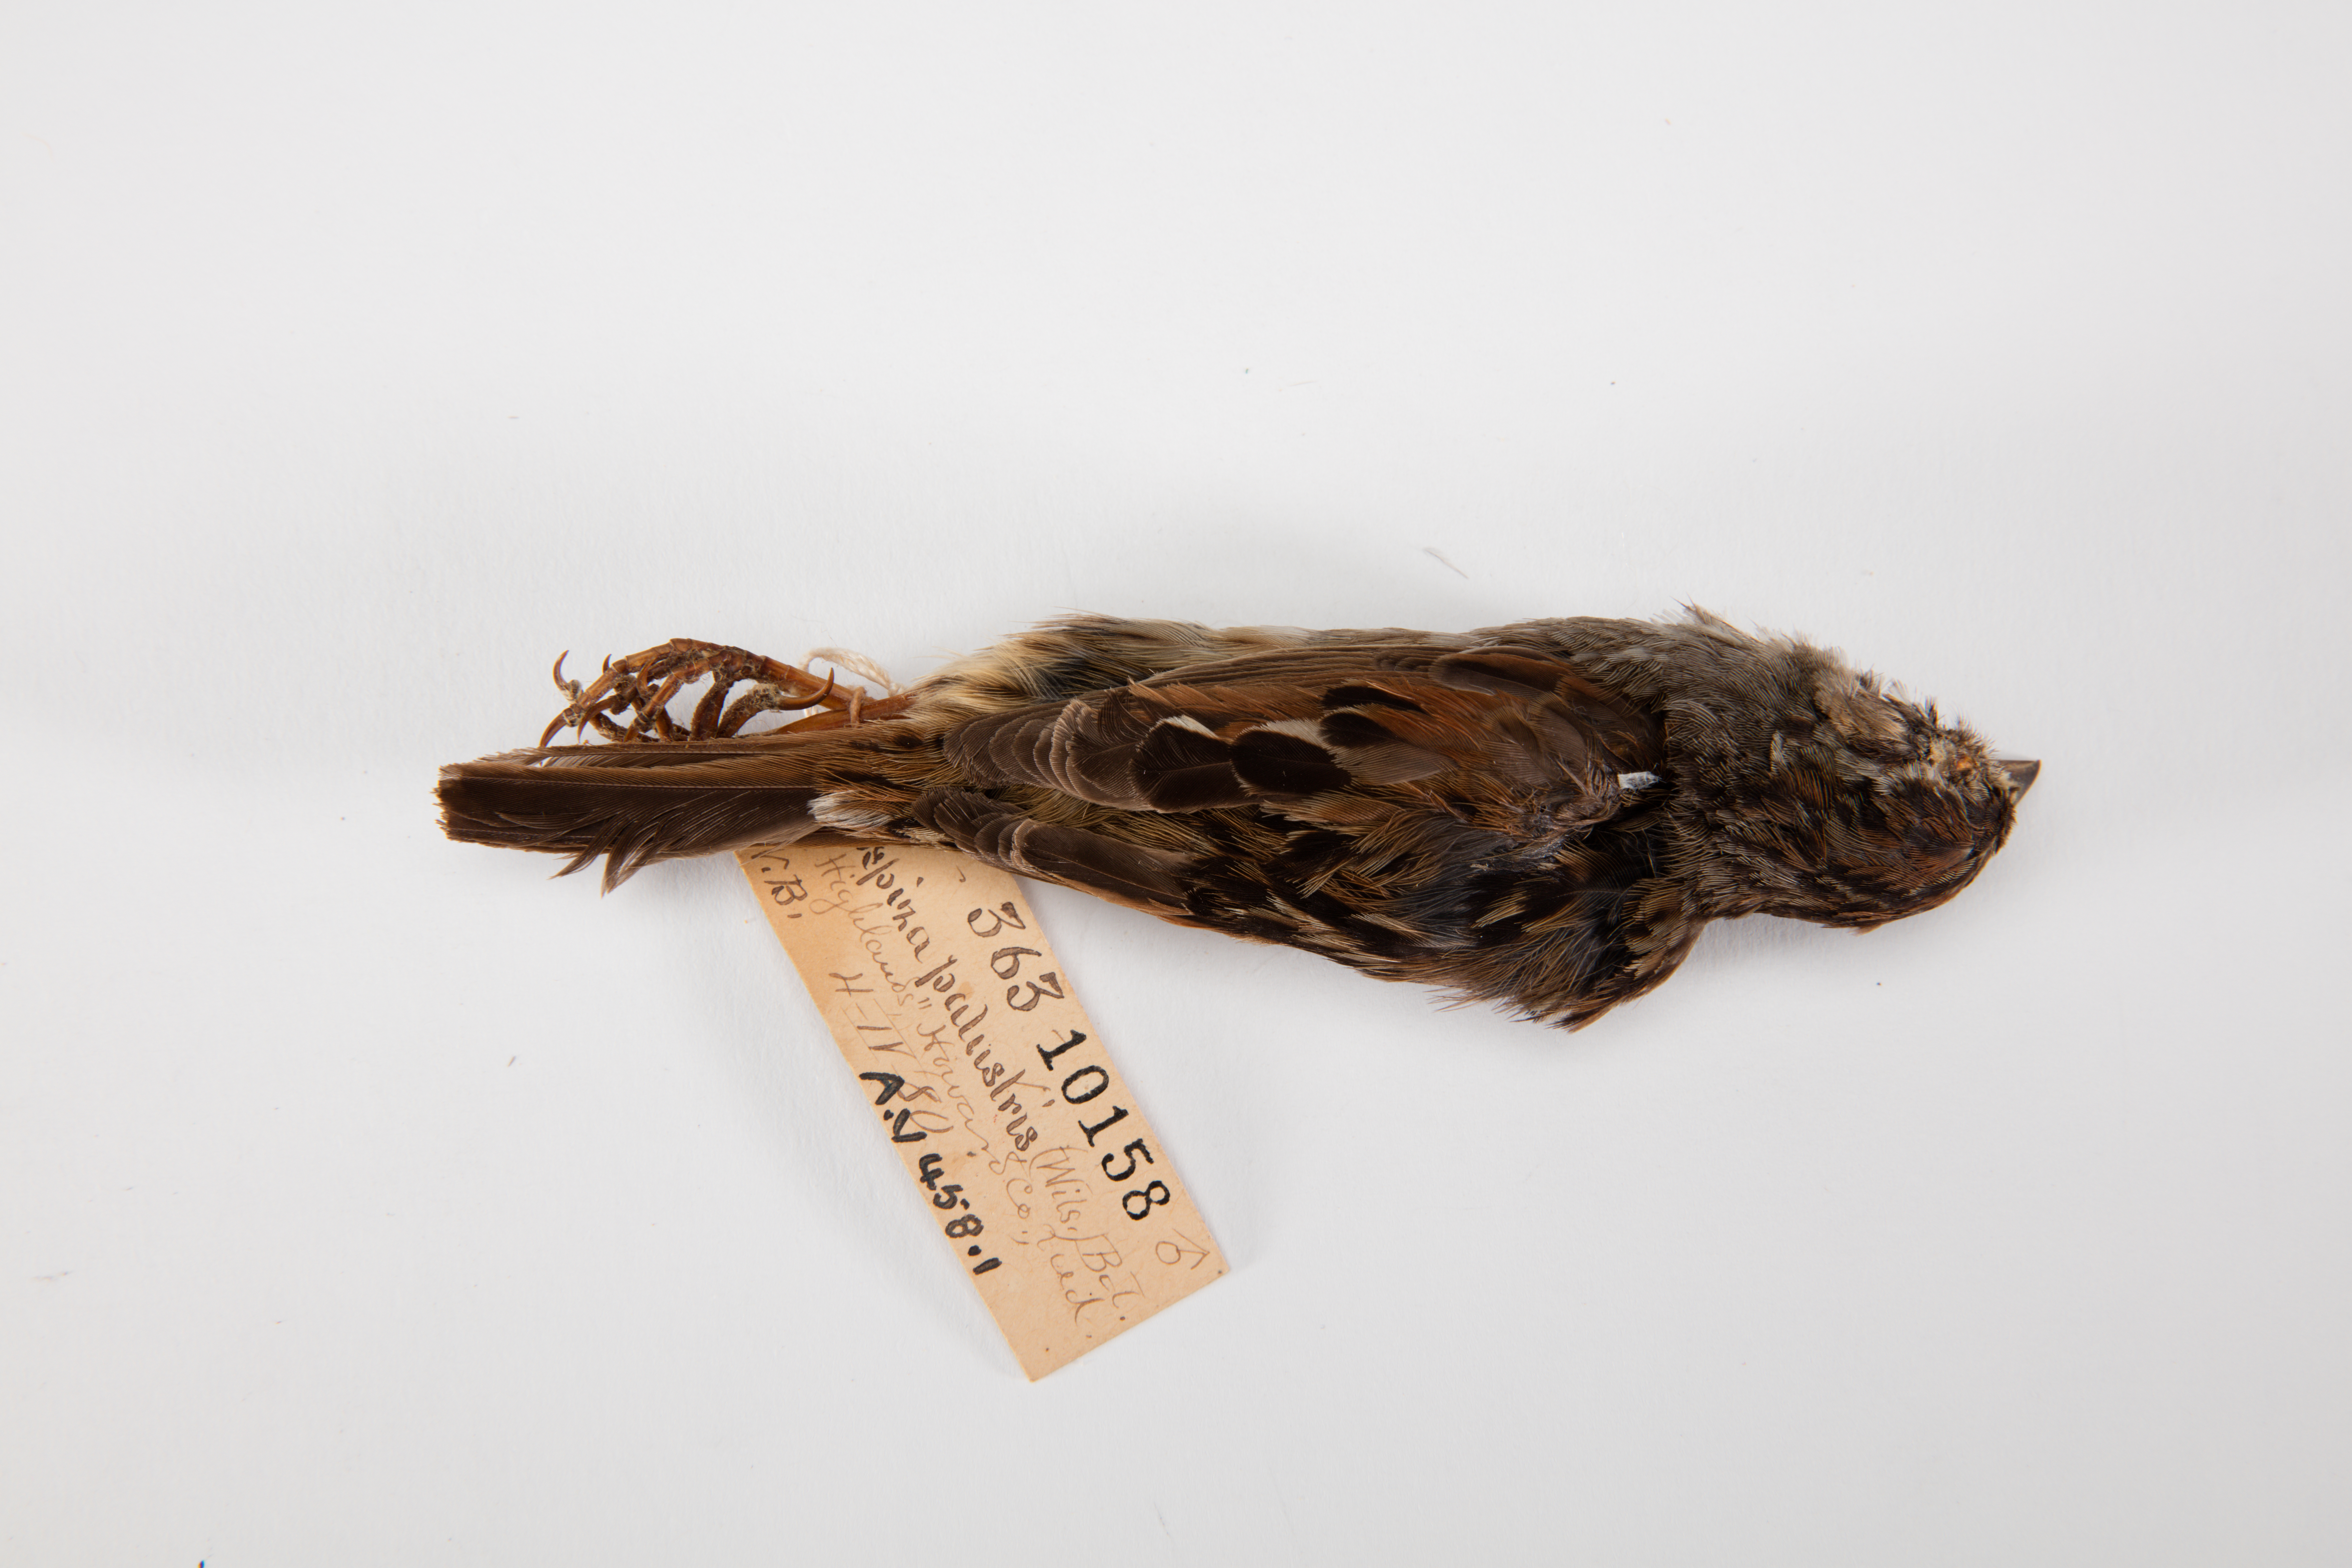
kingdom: Animalia
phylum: Chordata
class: Aves
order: Passeriformes
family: Passerellidae
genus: Melospiza
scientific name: Melospiza georgiana
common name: Swamp sparrow
